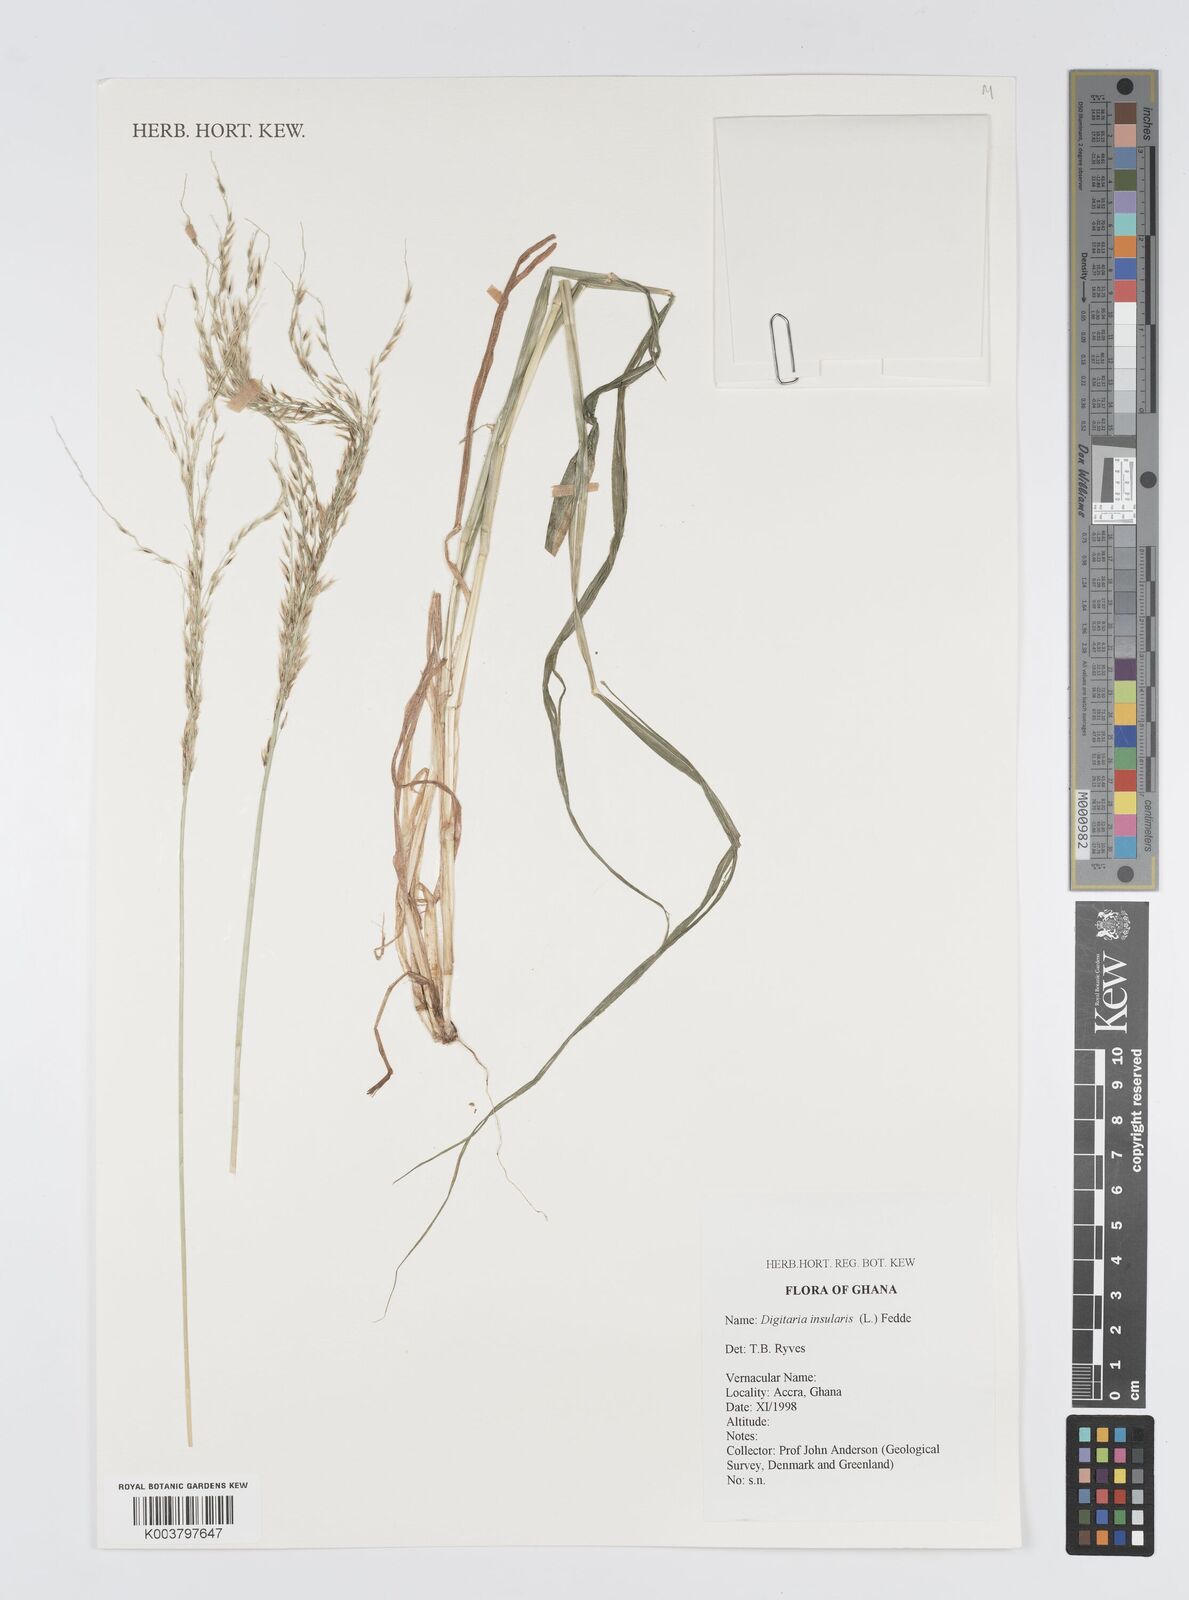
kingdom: Plantae
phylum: Tracheophyta
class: Liliopsida
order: Poales
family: Poaceae
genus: Digitaria
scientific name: Digitaria insularis
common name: Sourgrass
